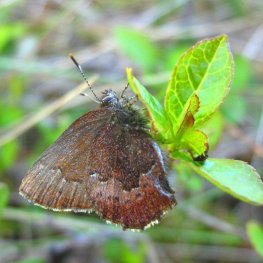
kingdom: Animalia
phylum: Arthropoda
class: Insecta
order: Lepidoptera
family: Lycaenidae
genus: Incisalia
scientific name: Incisalia irioides
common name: Brown Elfin
